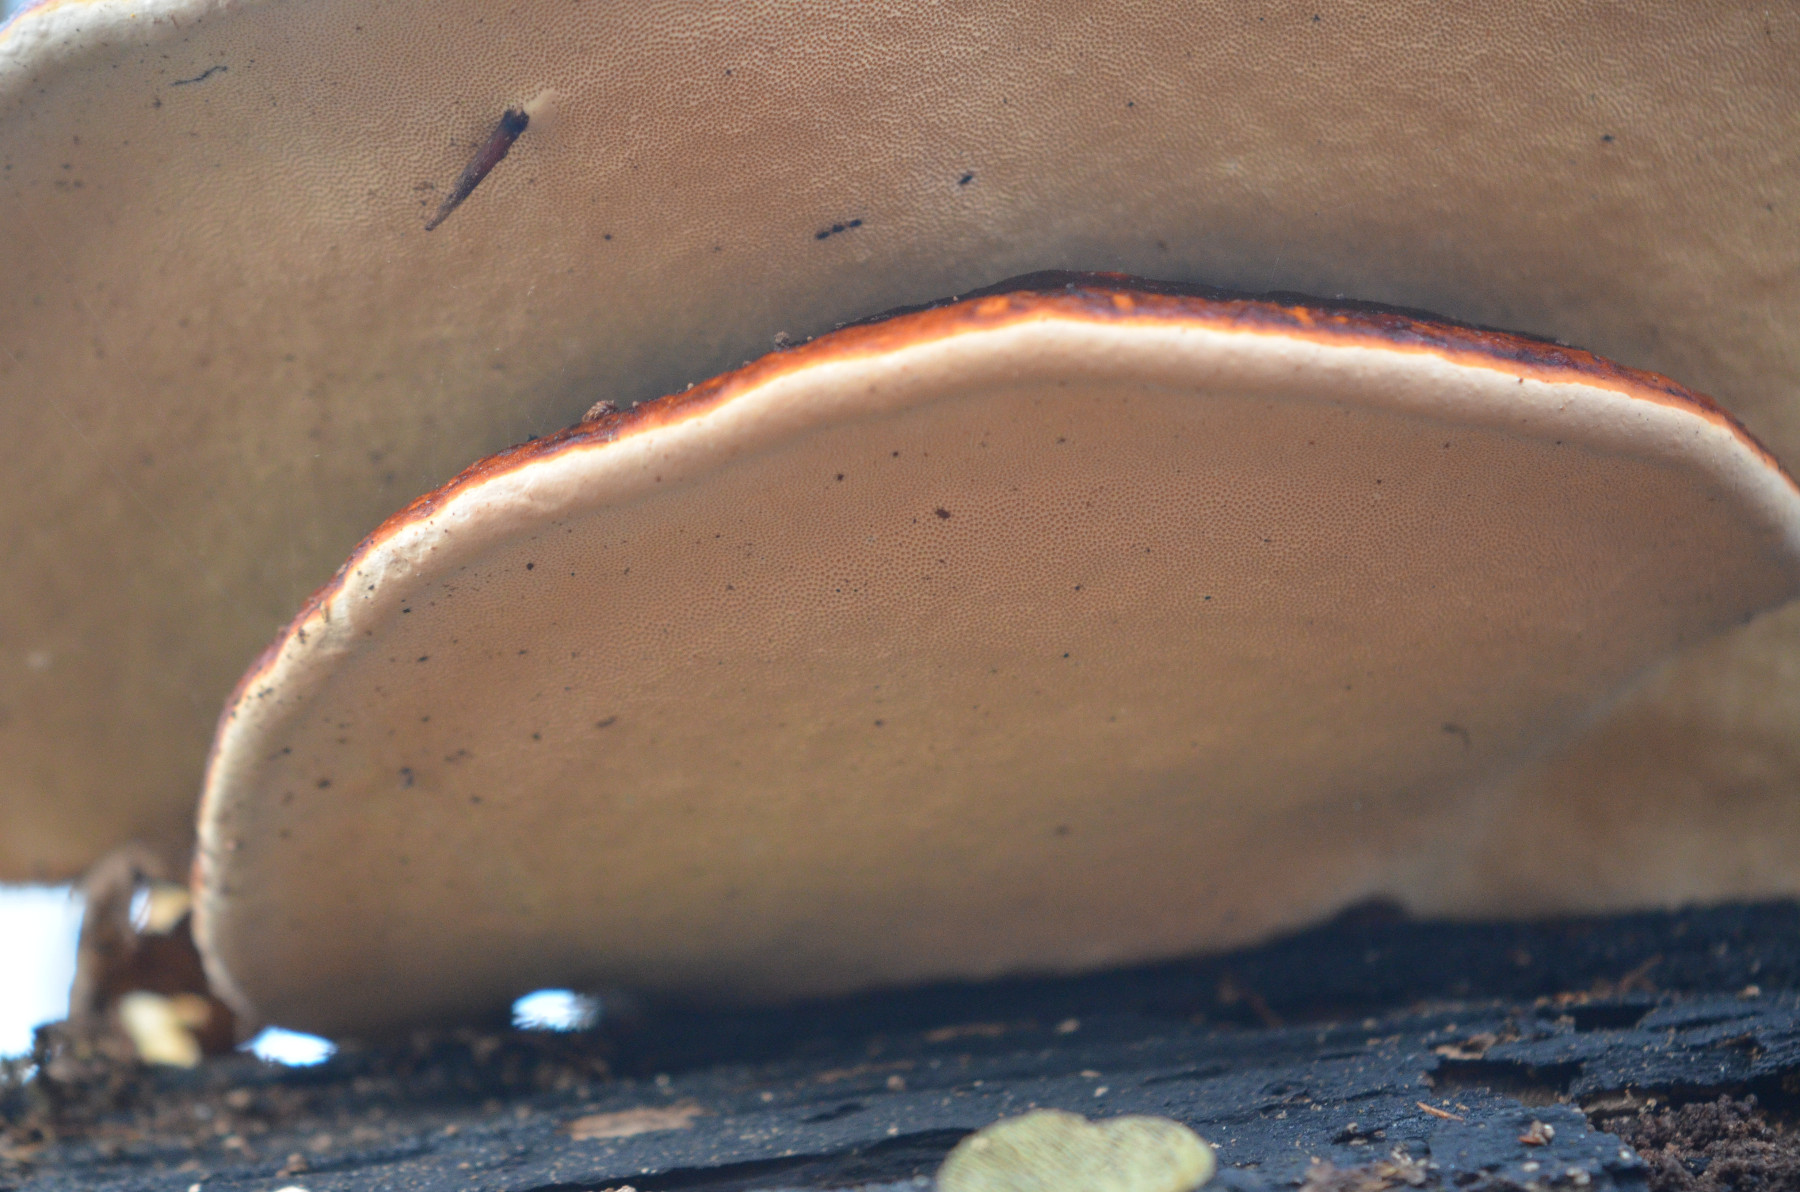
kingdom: Fungi
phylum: Basidiomycota
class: Agaricomycetes
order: Polyporales
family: Fomitopsidaceae
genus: Fomitopsis
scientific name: Fomitopsis pinicola
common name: randbæltet hovporesvamp
